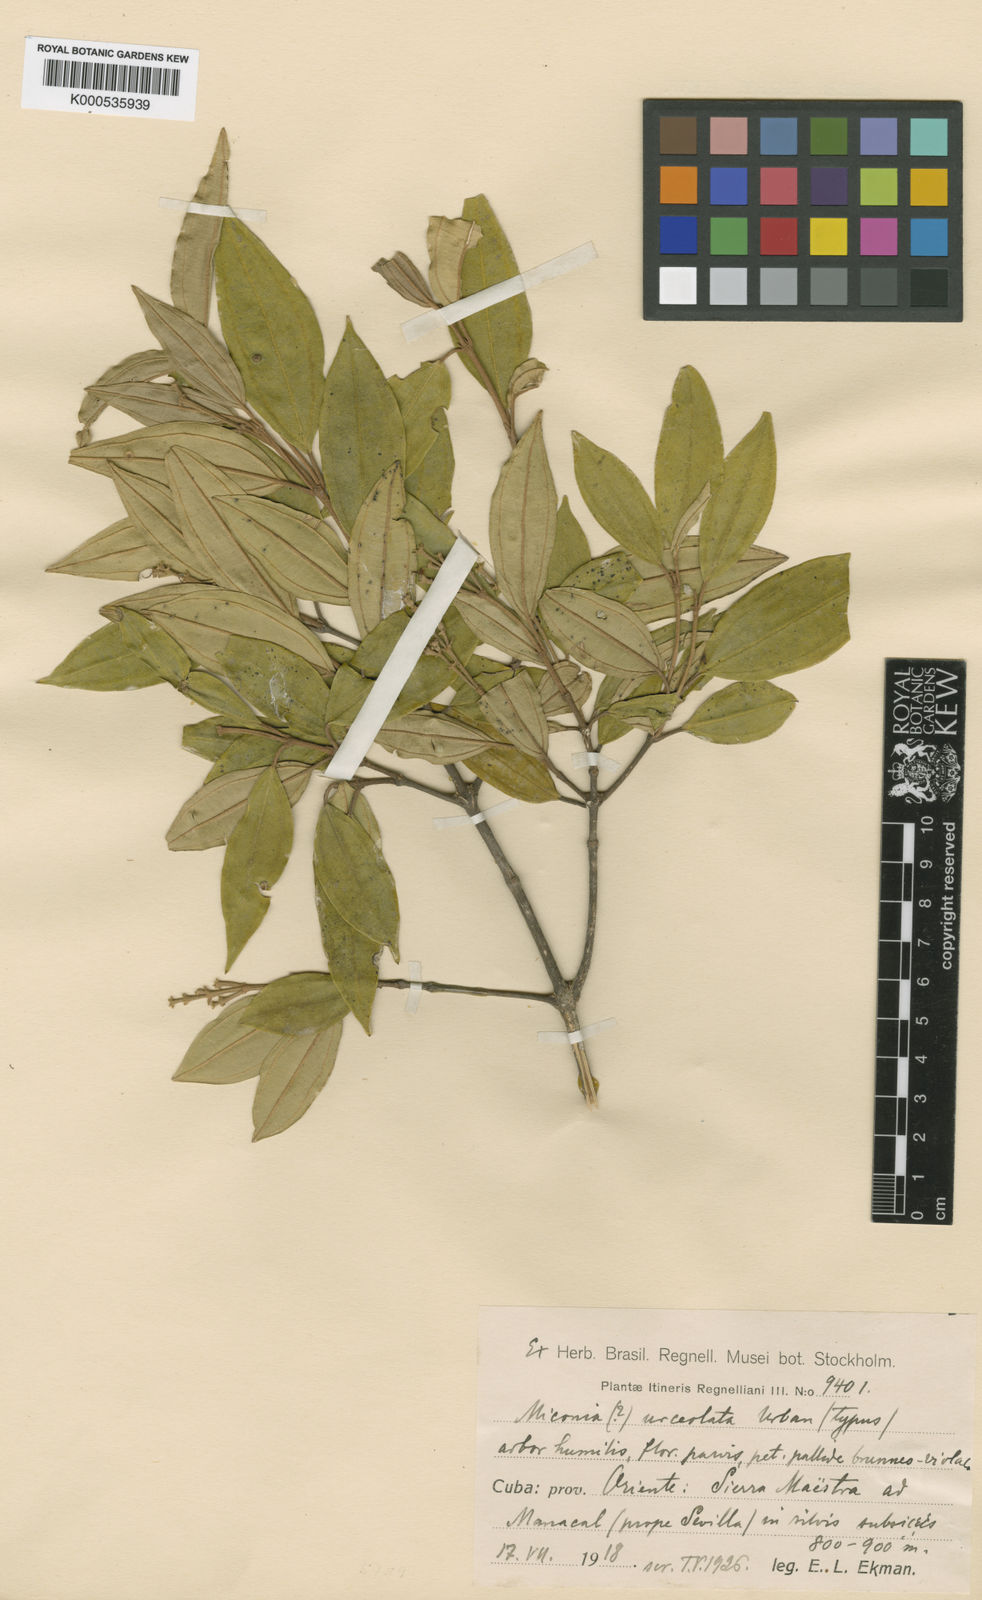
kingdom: Plantae
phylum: Tracheophyta
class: Magnoliopsida
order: Myrtales
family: Melastomataceae
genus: Miconia
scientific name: Miconia urceolata
